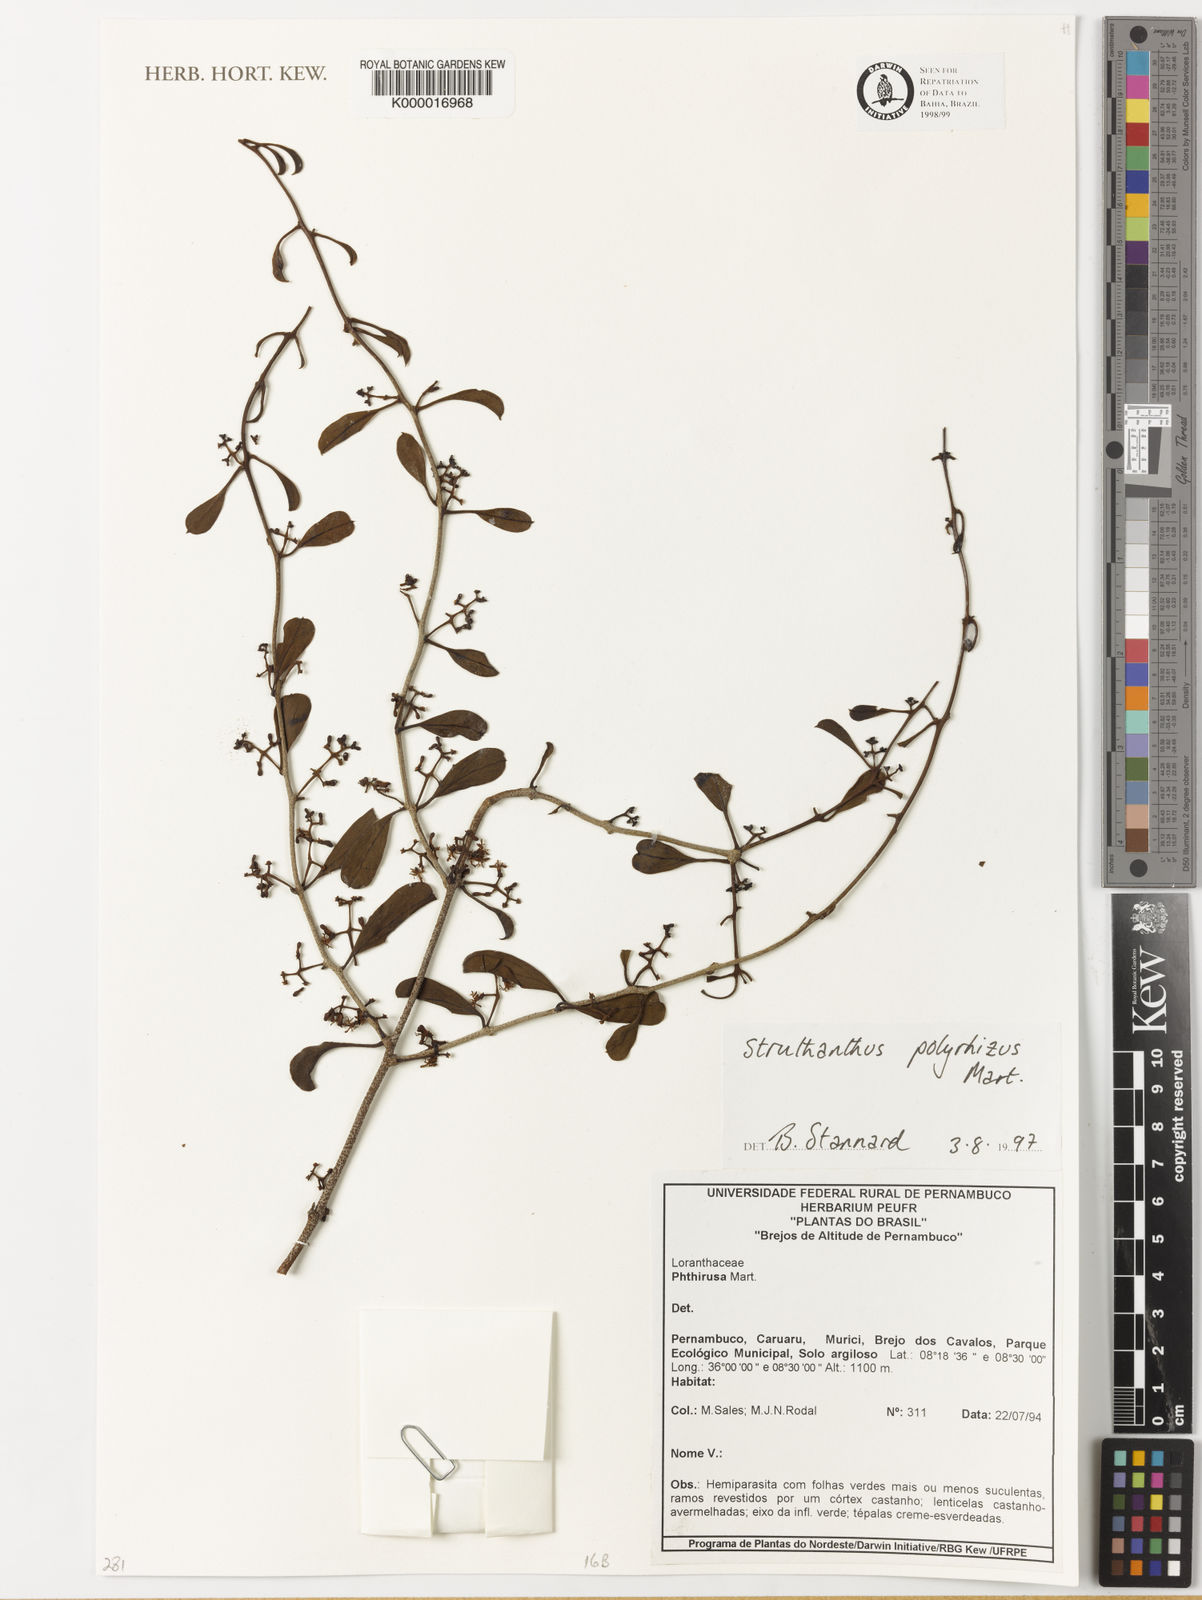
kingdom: Plantae
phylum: Tracheophyta
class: Magnoliopsida
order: Santalales
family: Loranthaceae
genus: Struthanthus
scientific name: Struthanthus retusus
